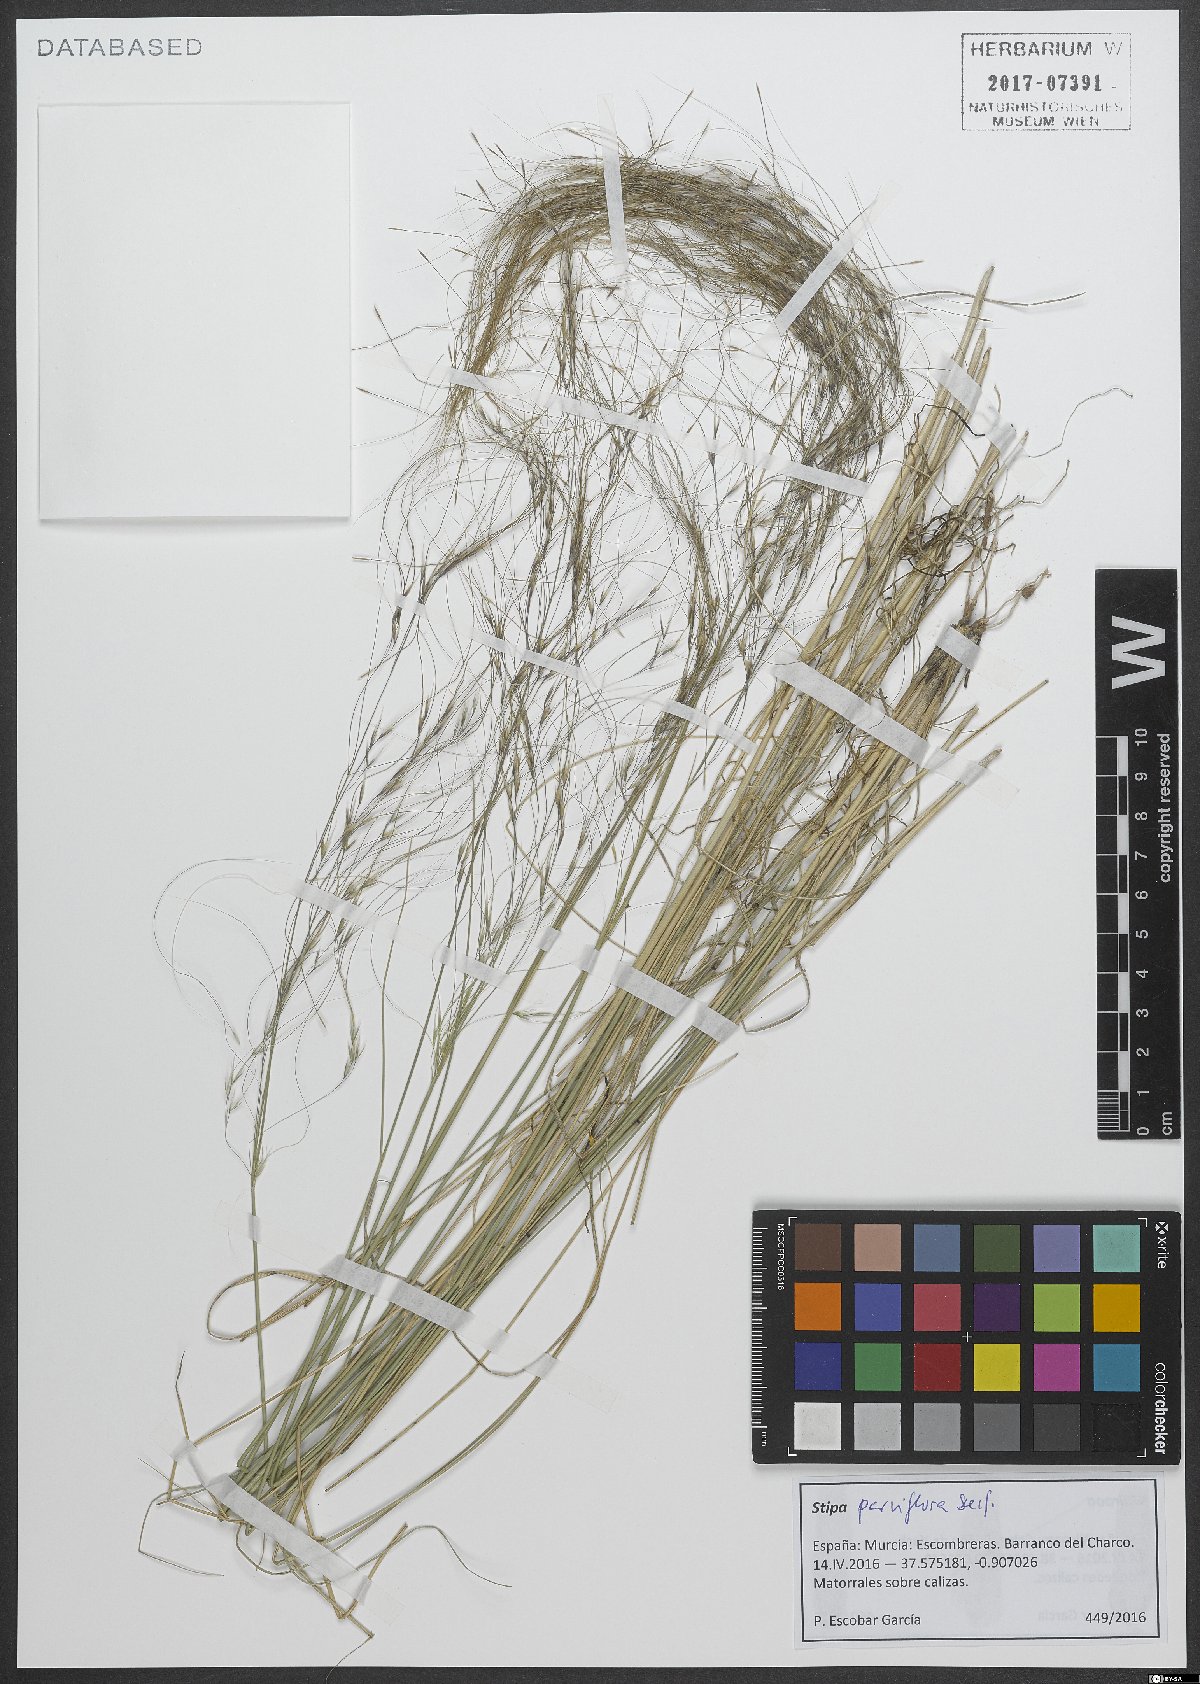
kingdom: Plantae
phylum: Tracheophyta
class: Liliopsida
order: Poales
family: Poaceae
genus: Achnatherum
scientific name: Achnatherum parviflorum
